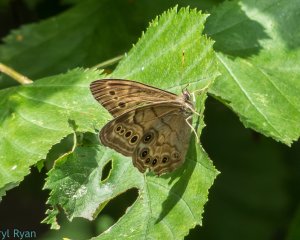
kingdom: Animalia
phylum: Arthropoda
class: Insecta
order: Lepidoptera
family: Nymphalidae
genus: Lethe
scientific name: Lethe anthedon
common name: Northern Pearly-Eye
